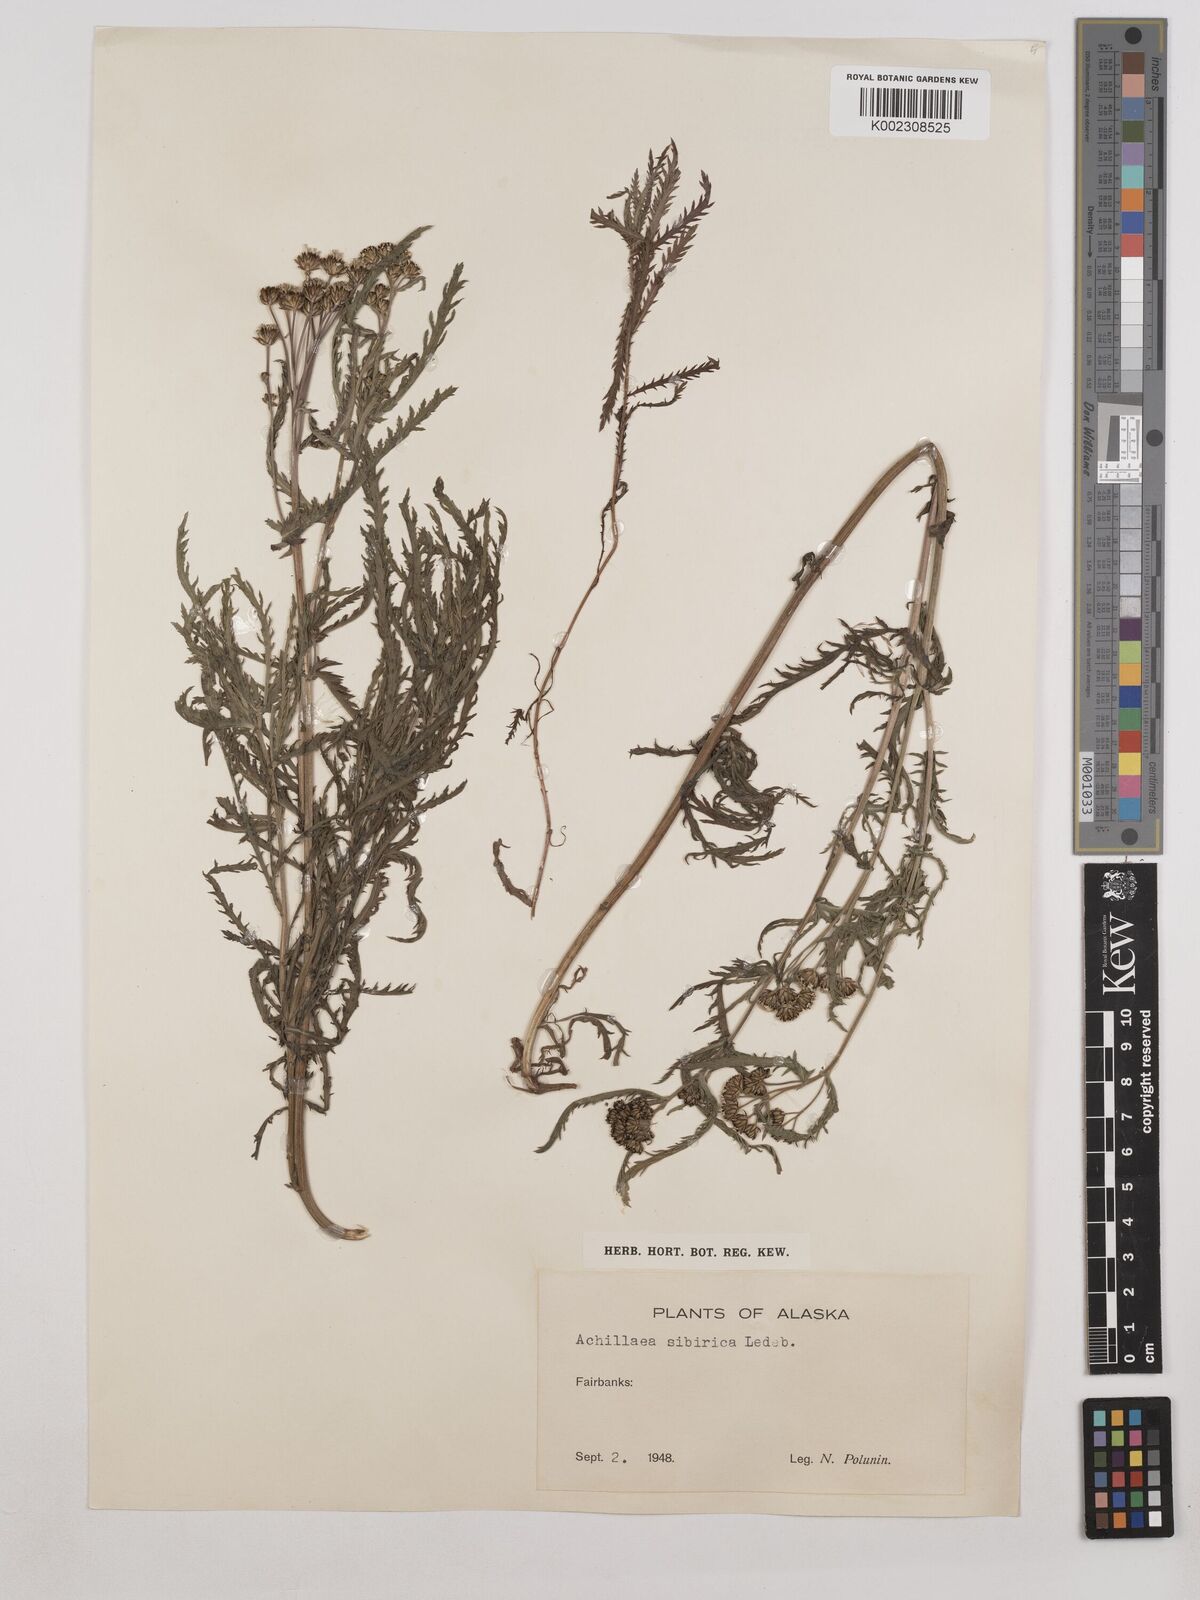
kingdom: Plantae
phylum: Tracheophyta
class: Magnoliopsida
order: Asterales
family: Asteraceae
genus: Achillea
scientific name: Achillea alpina
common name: Siberian yarrow
